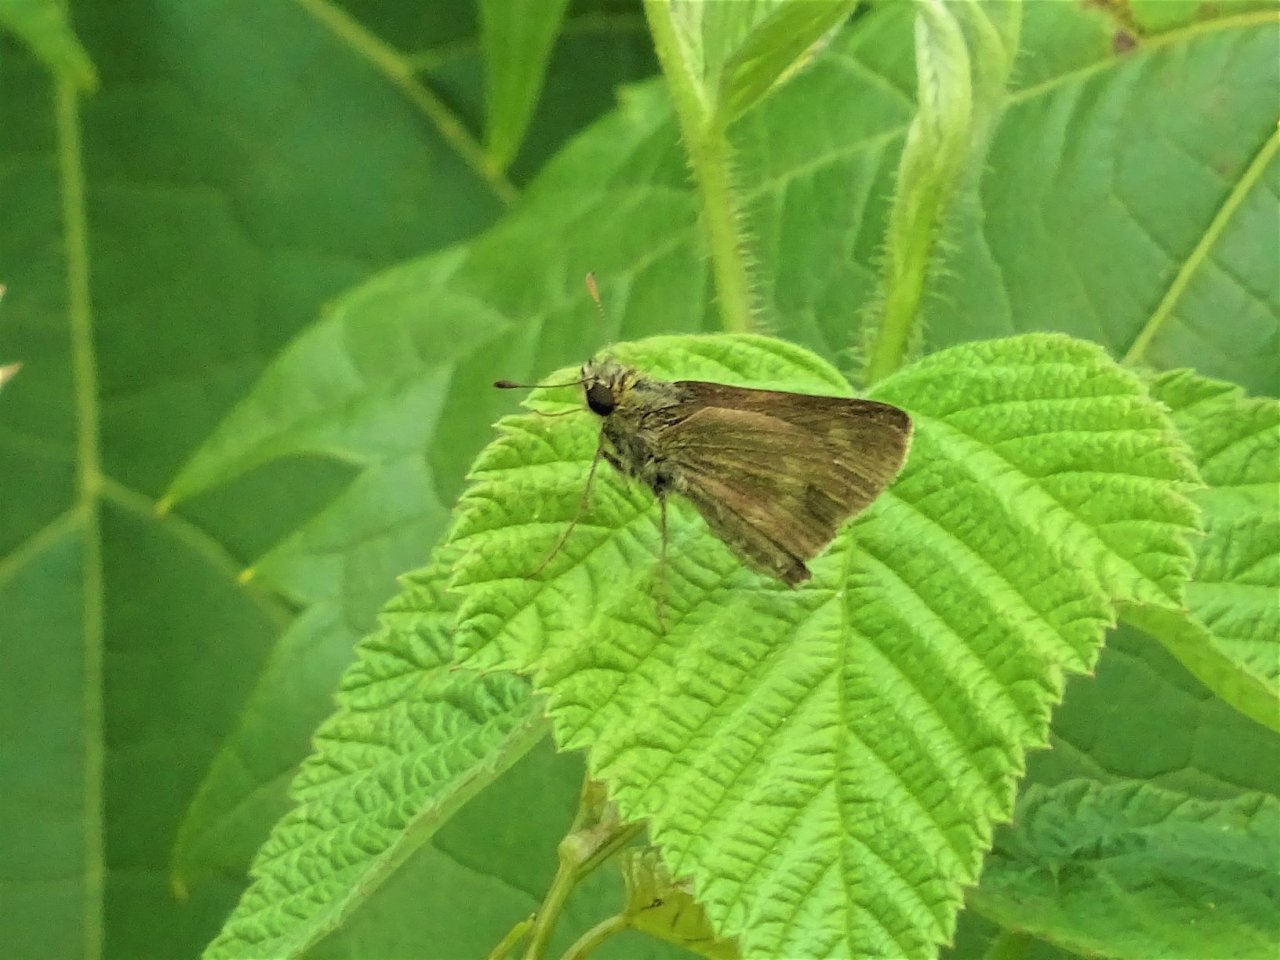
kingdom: Animalia
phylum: Arthropoda
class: Insecta
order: Lepidoptera
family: Hesperiidae
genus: Polites
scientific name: Polites egeremet
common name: Northern Broken-Dash
